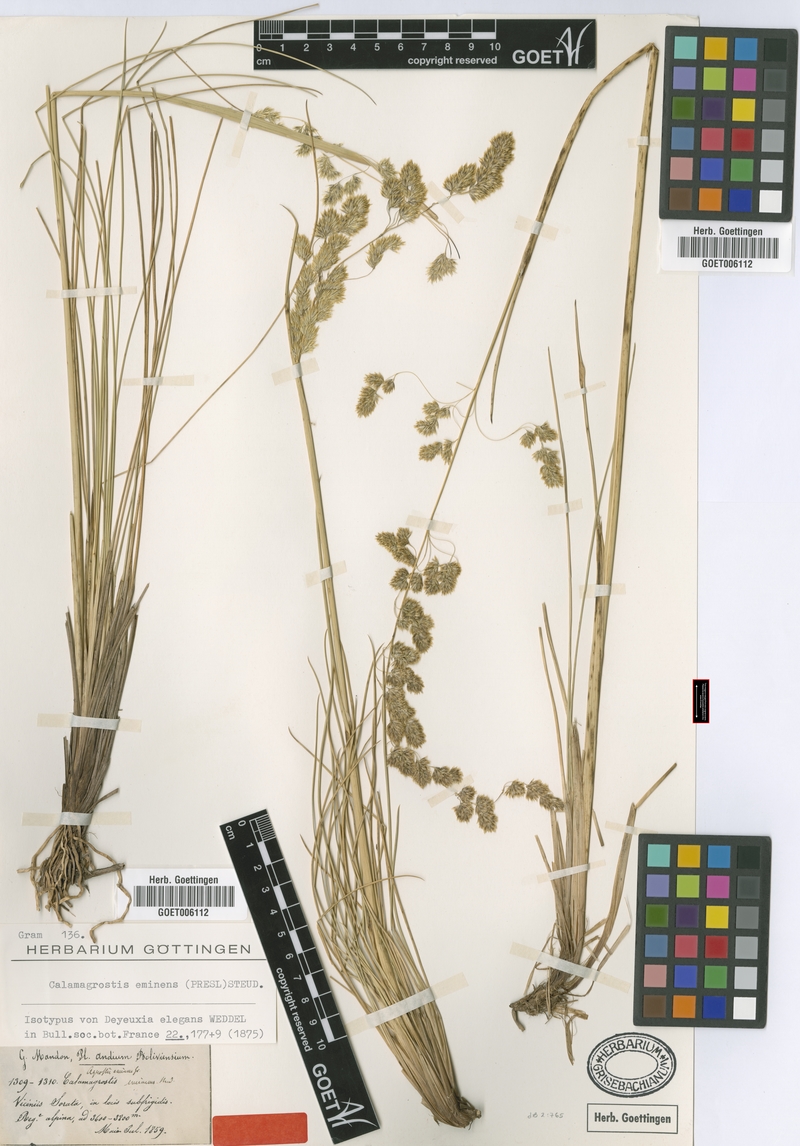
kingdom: Plantae
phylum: Tracheophyta
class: Liliopsida
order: Poales
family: Poaceae
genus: Deschampsia
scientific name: Deschampsia eminens
